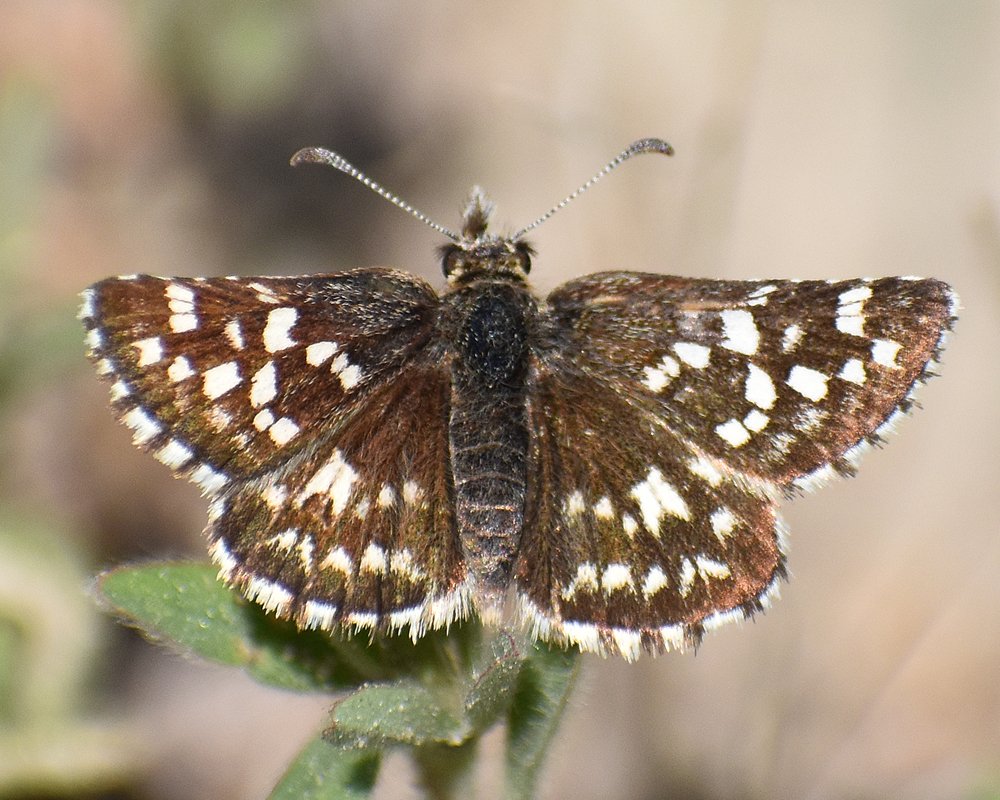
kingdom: Animalia
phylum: Arthropoda
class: Insecta
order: Lepidoptera
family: Hesperiidae
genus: Pyrgus
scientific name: Pyrgus ruralis
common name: Two-banded Checkered-Skipper
